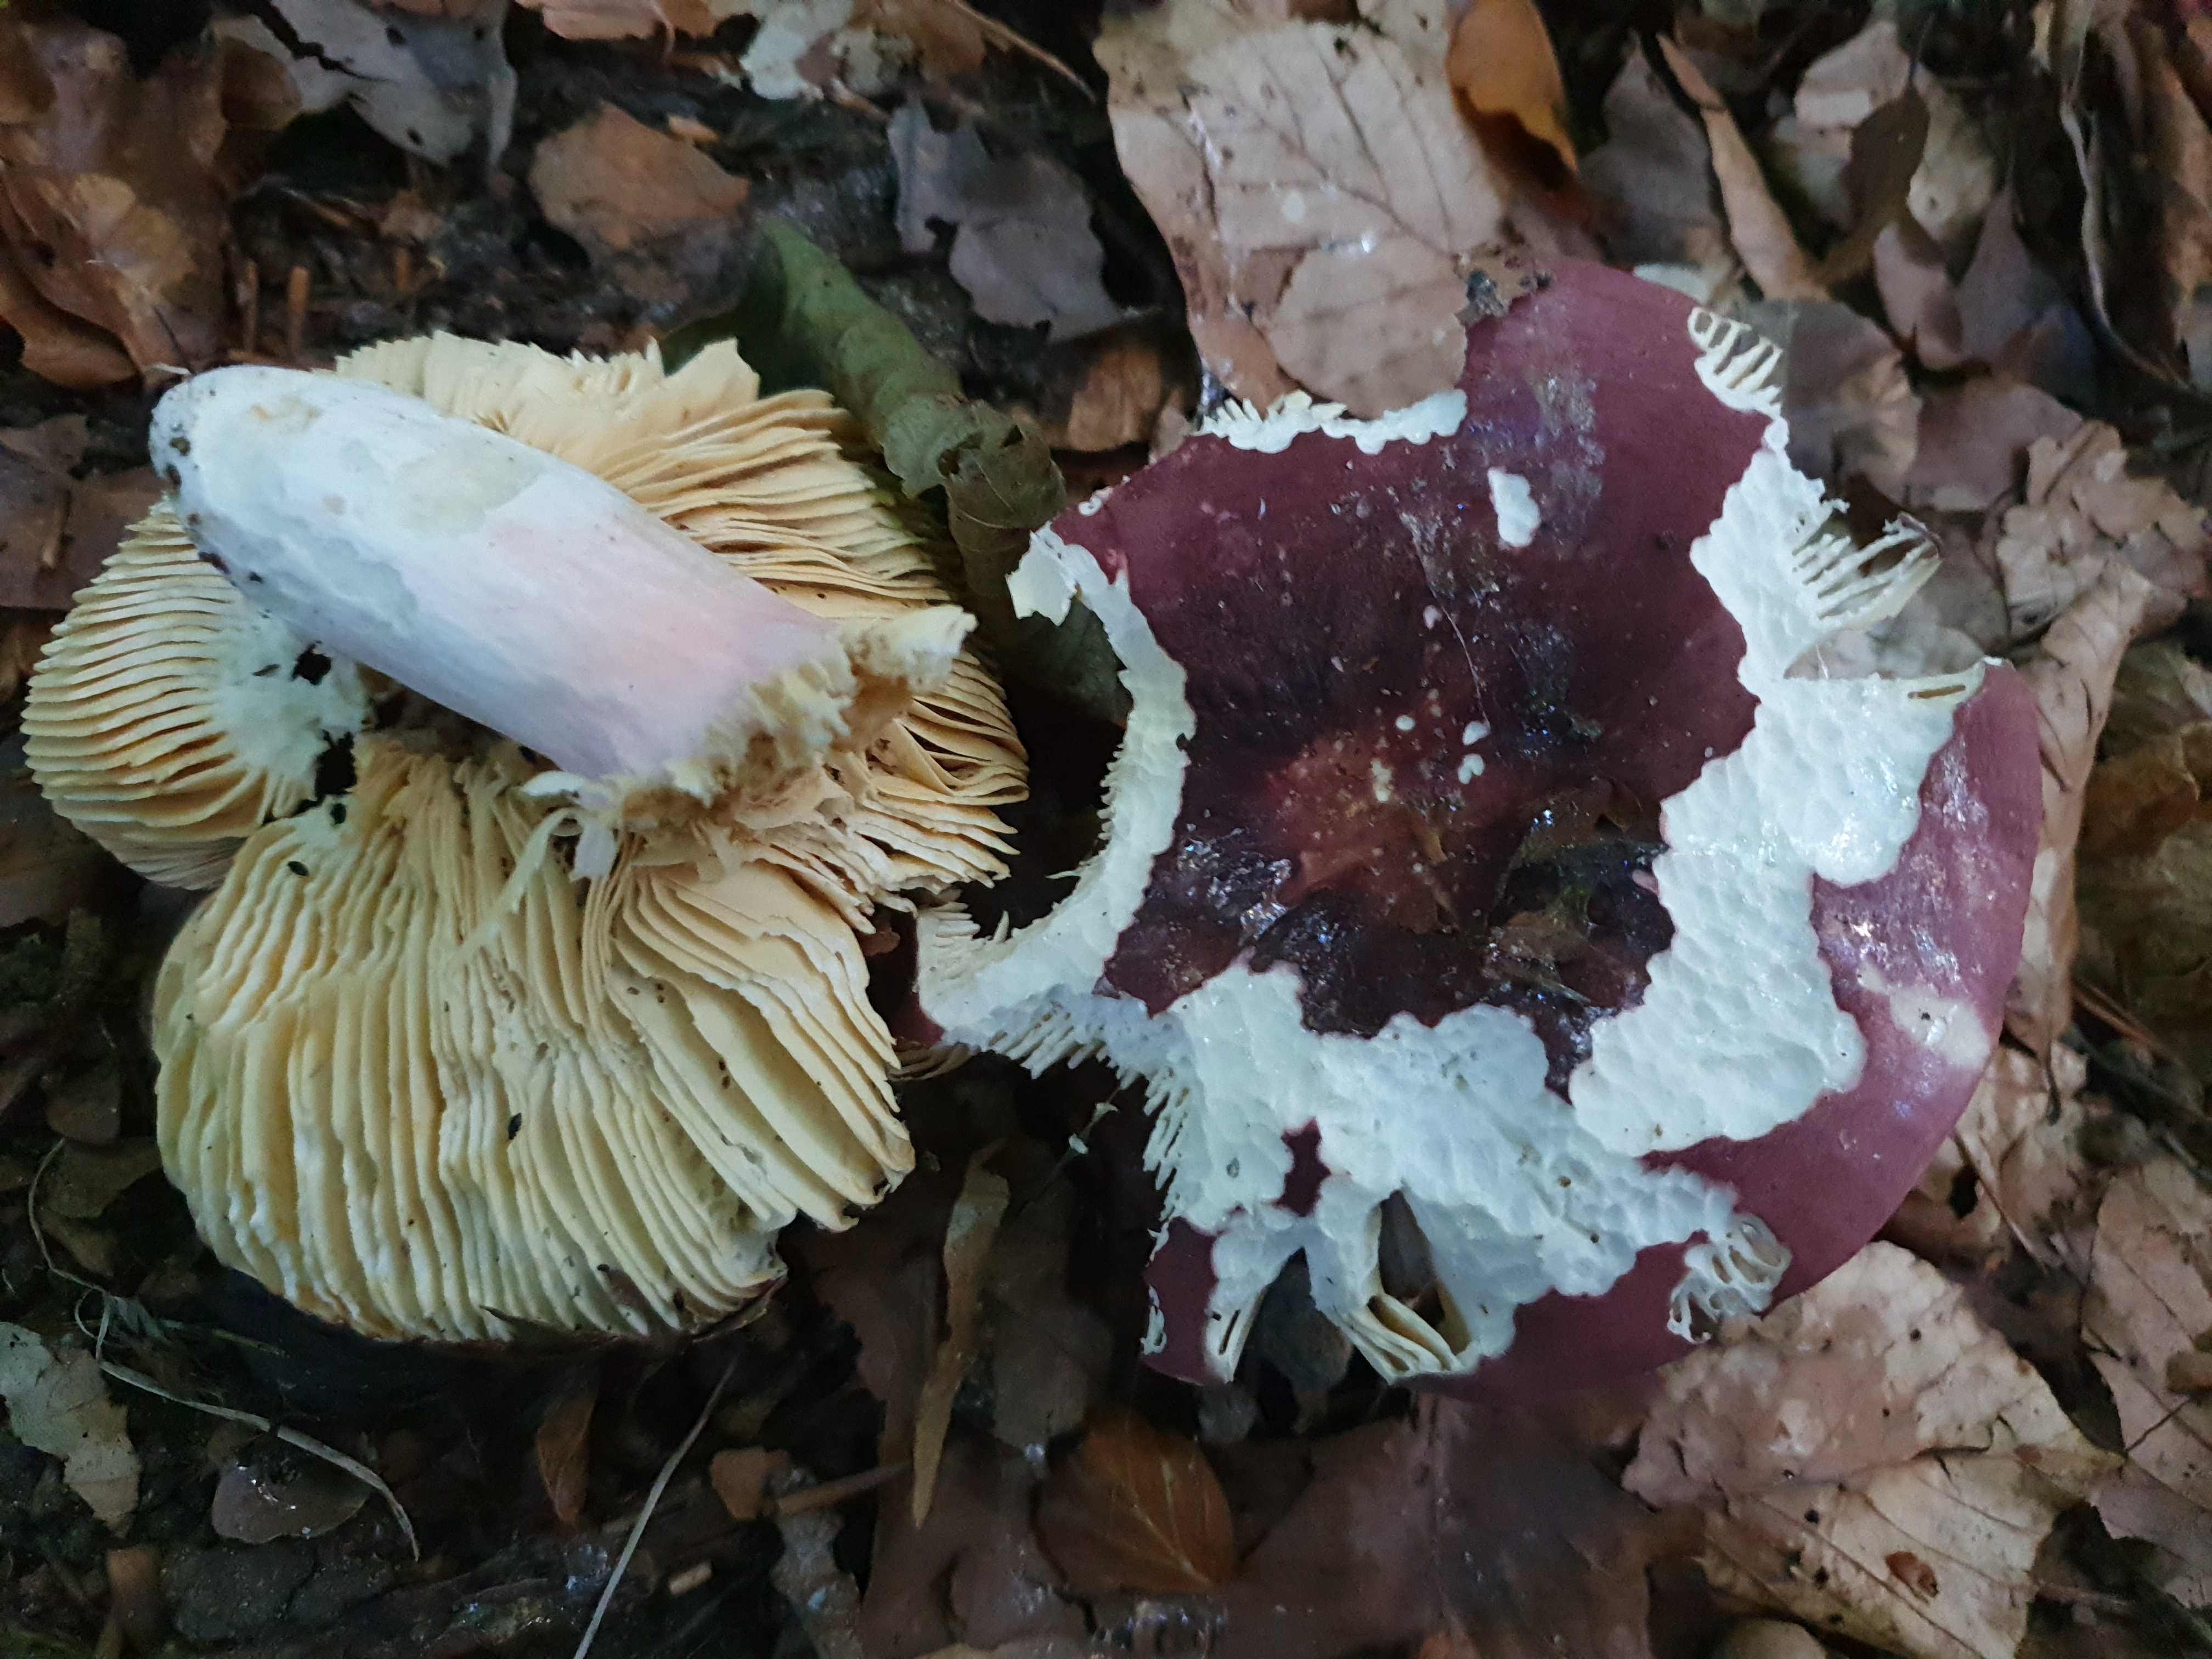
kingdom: Fungi
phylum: Basidiomycota
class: Agaricomycetes
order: Russulales
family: Russulaceae
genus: Russula
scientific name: Russula olivacea
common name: stor skørhat
